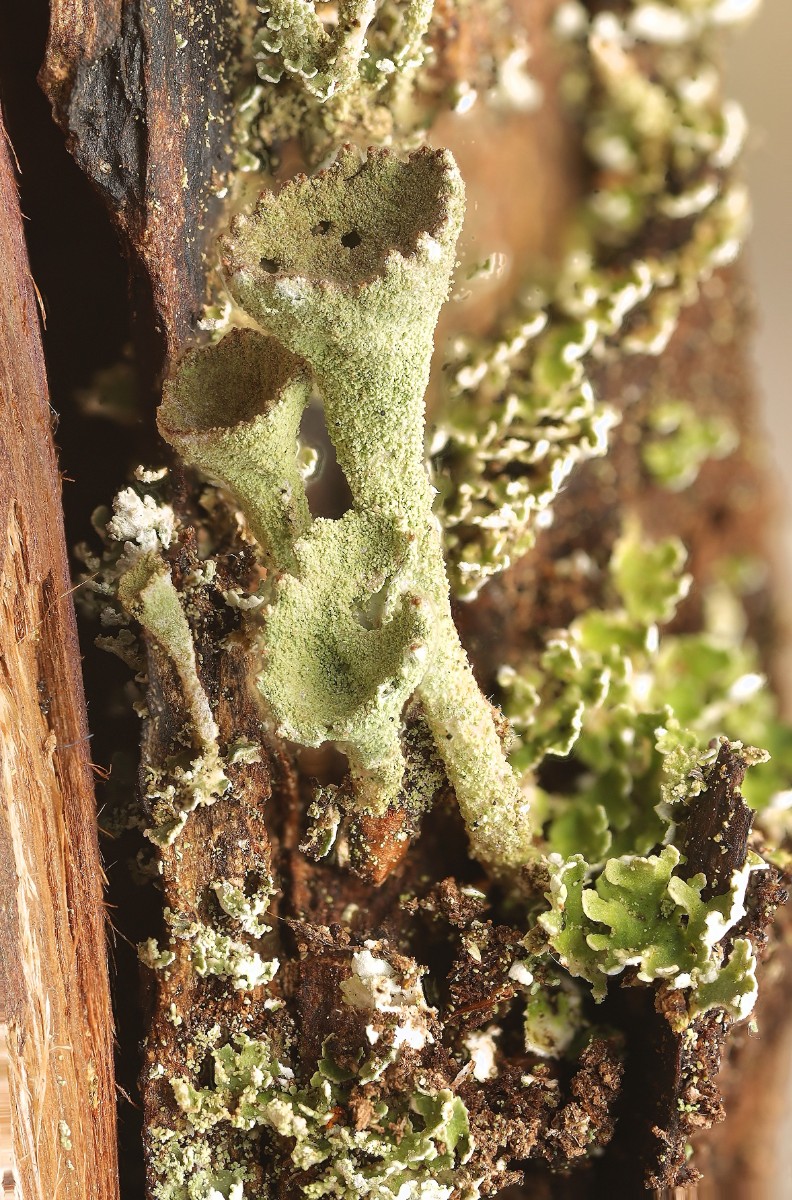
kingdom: Fungi
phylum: Ascomycota
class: Lecanoromycetes
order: Lecanorales
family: Cladoniaceae
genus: Cladonia
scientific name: Cladonia
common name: brungrøn bægerlav
